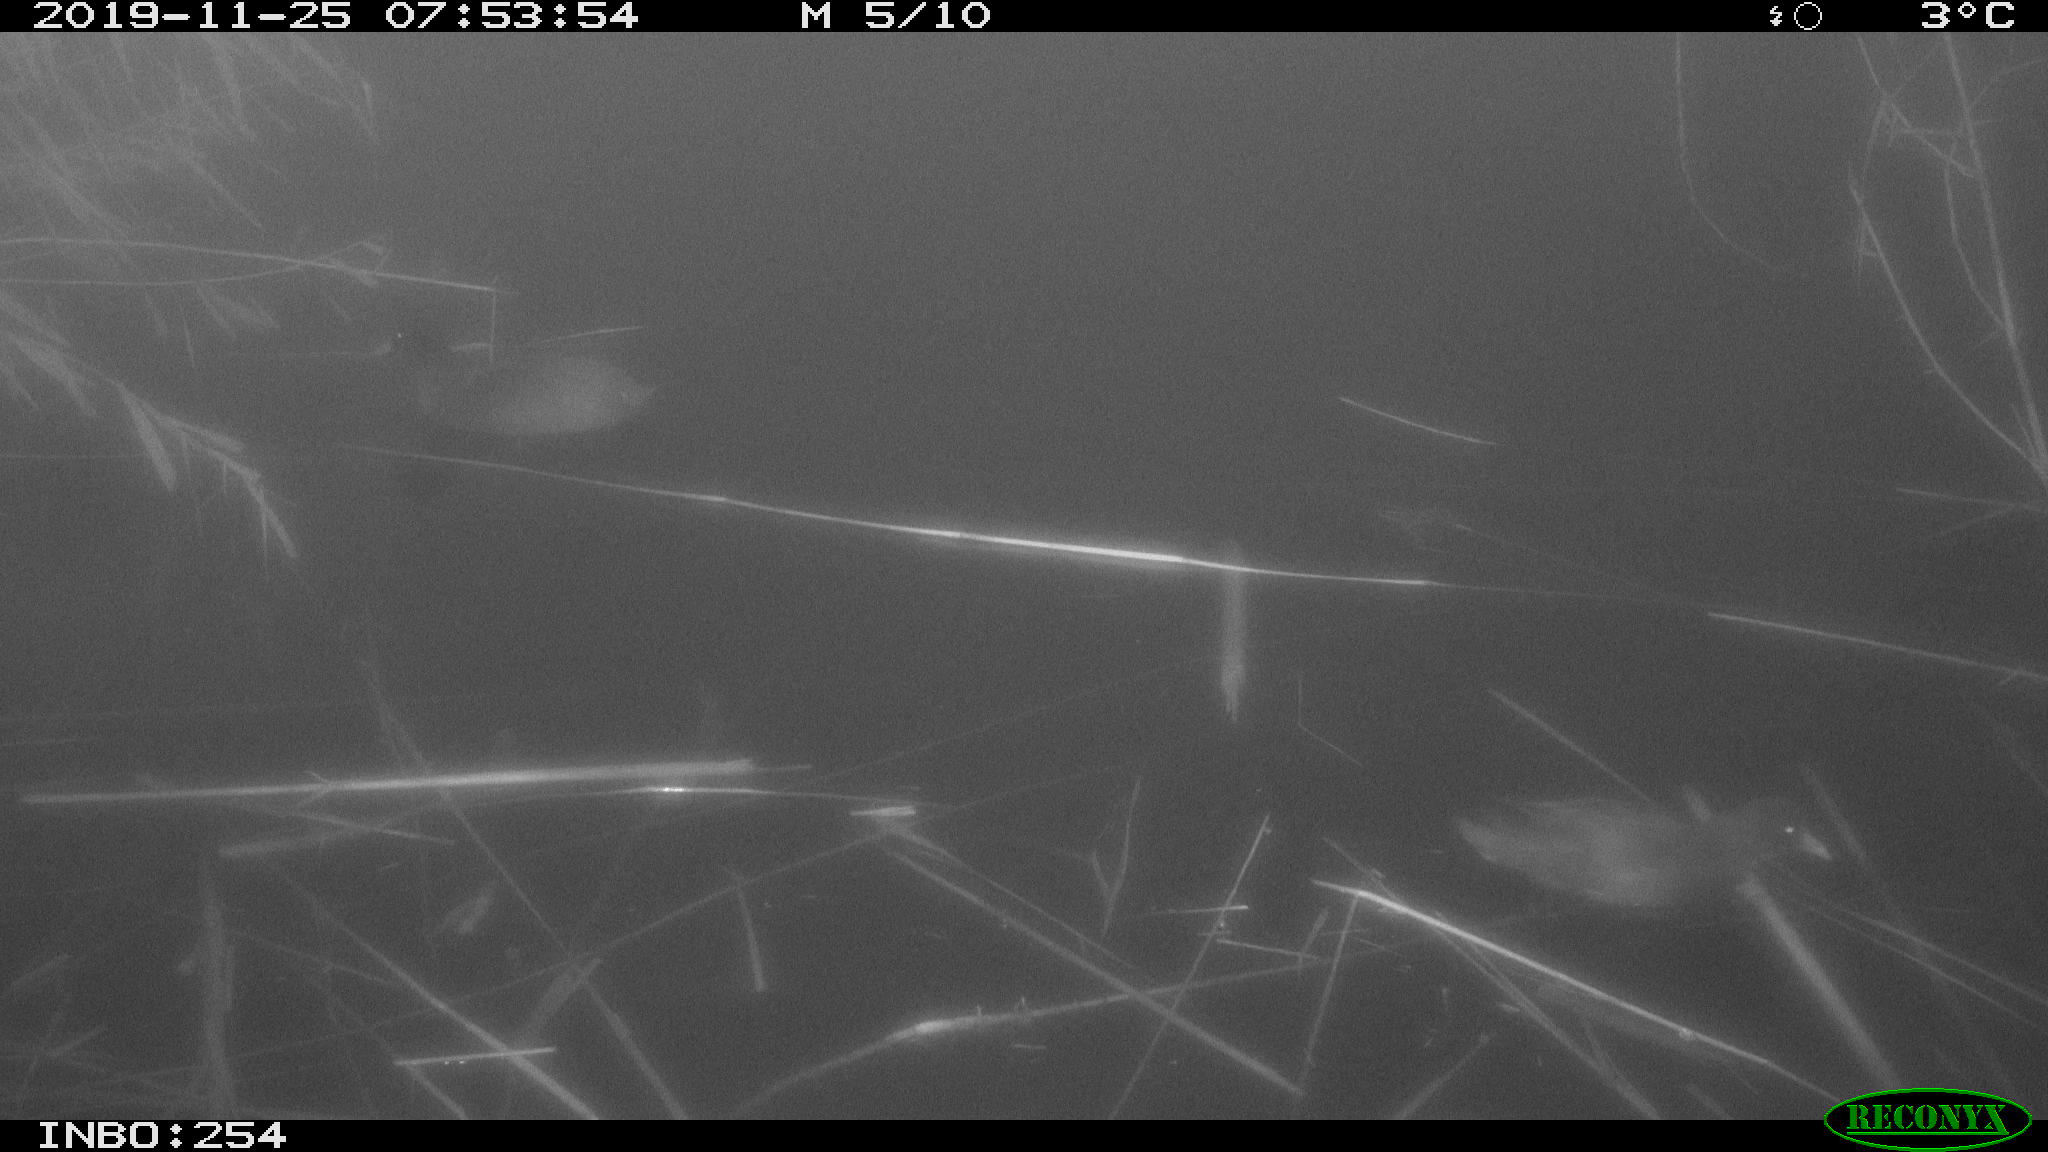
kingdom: Animalia
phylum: Chordata
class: Aves
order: Gruiformes
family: Rallidae
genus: Gallinula
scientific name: Gallinula chloropus
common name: Common moorhen
